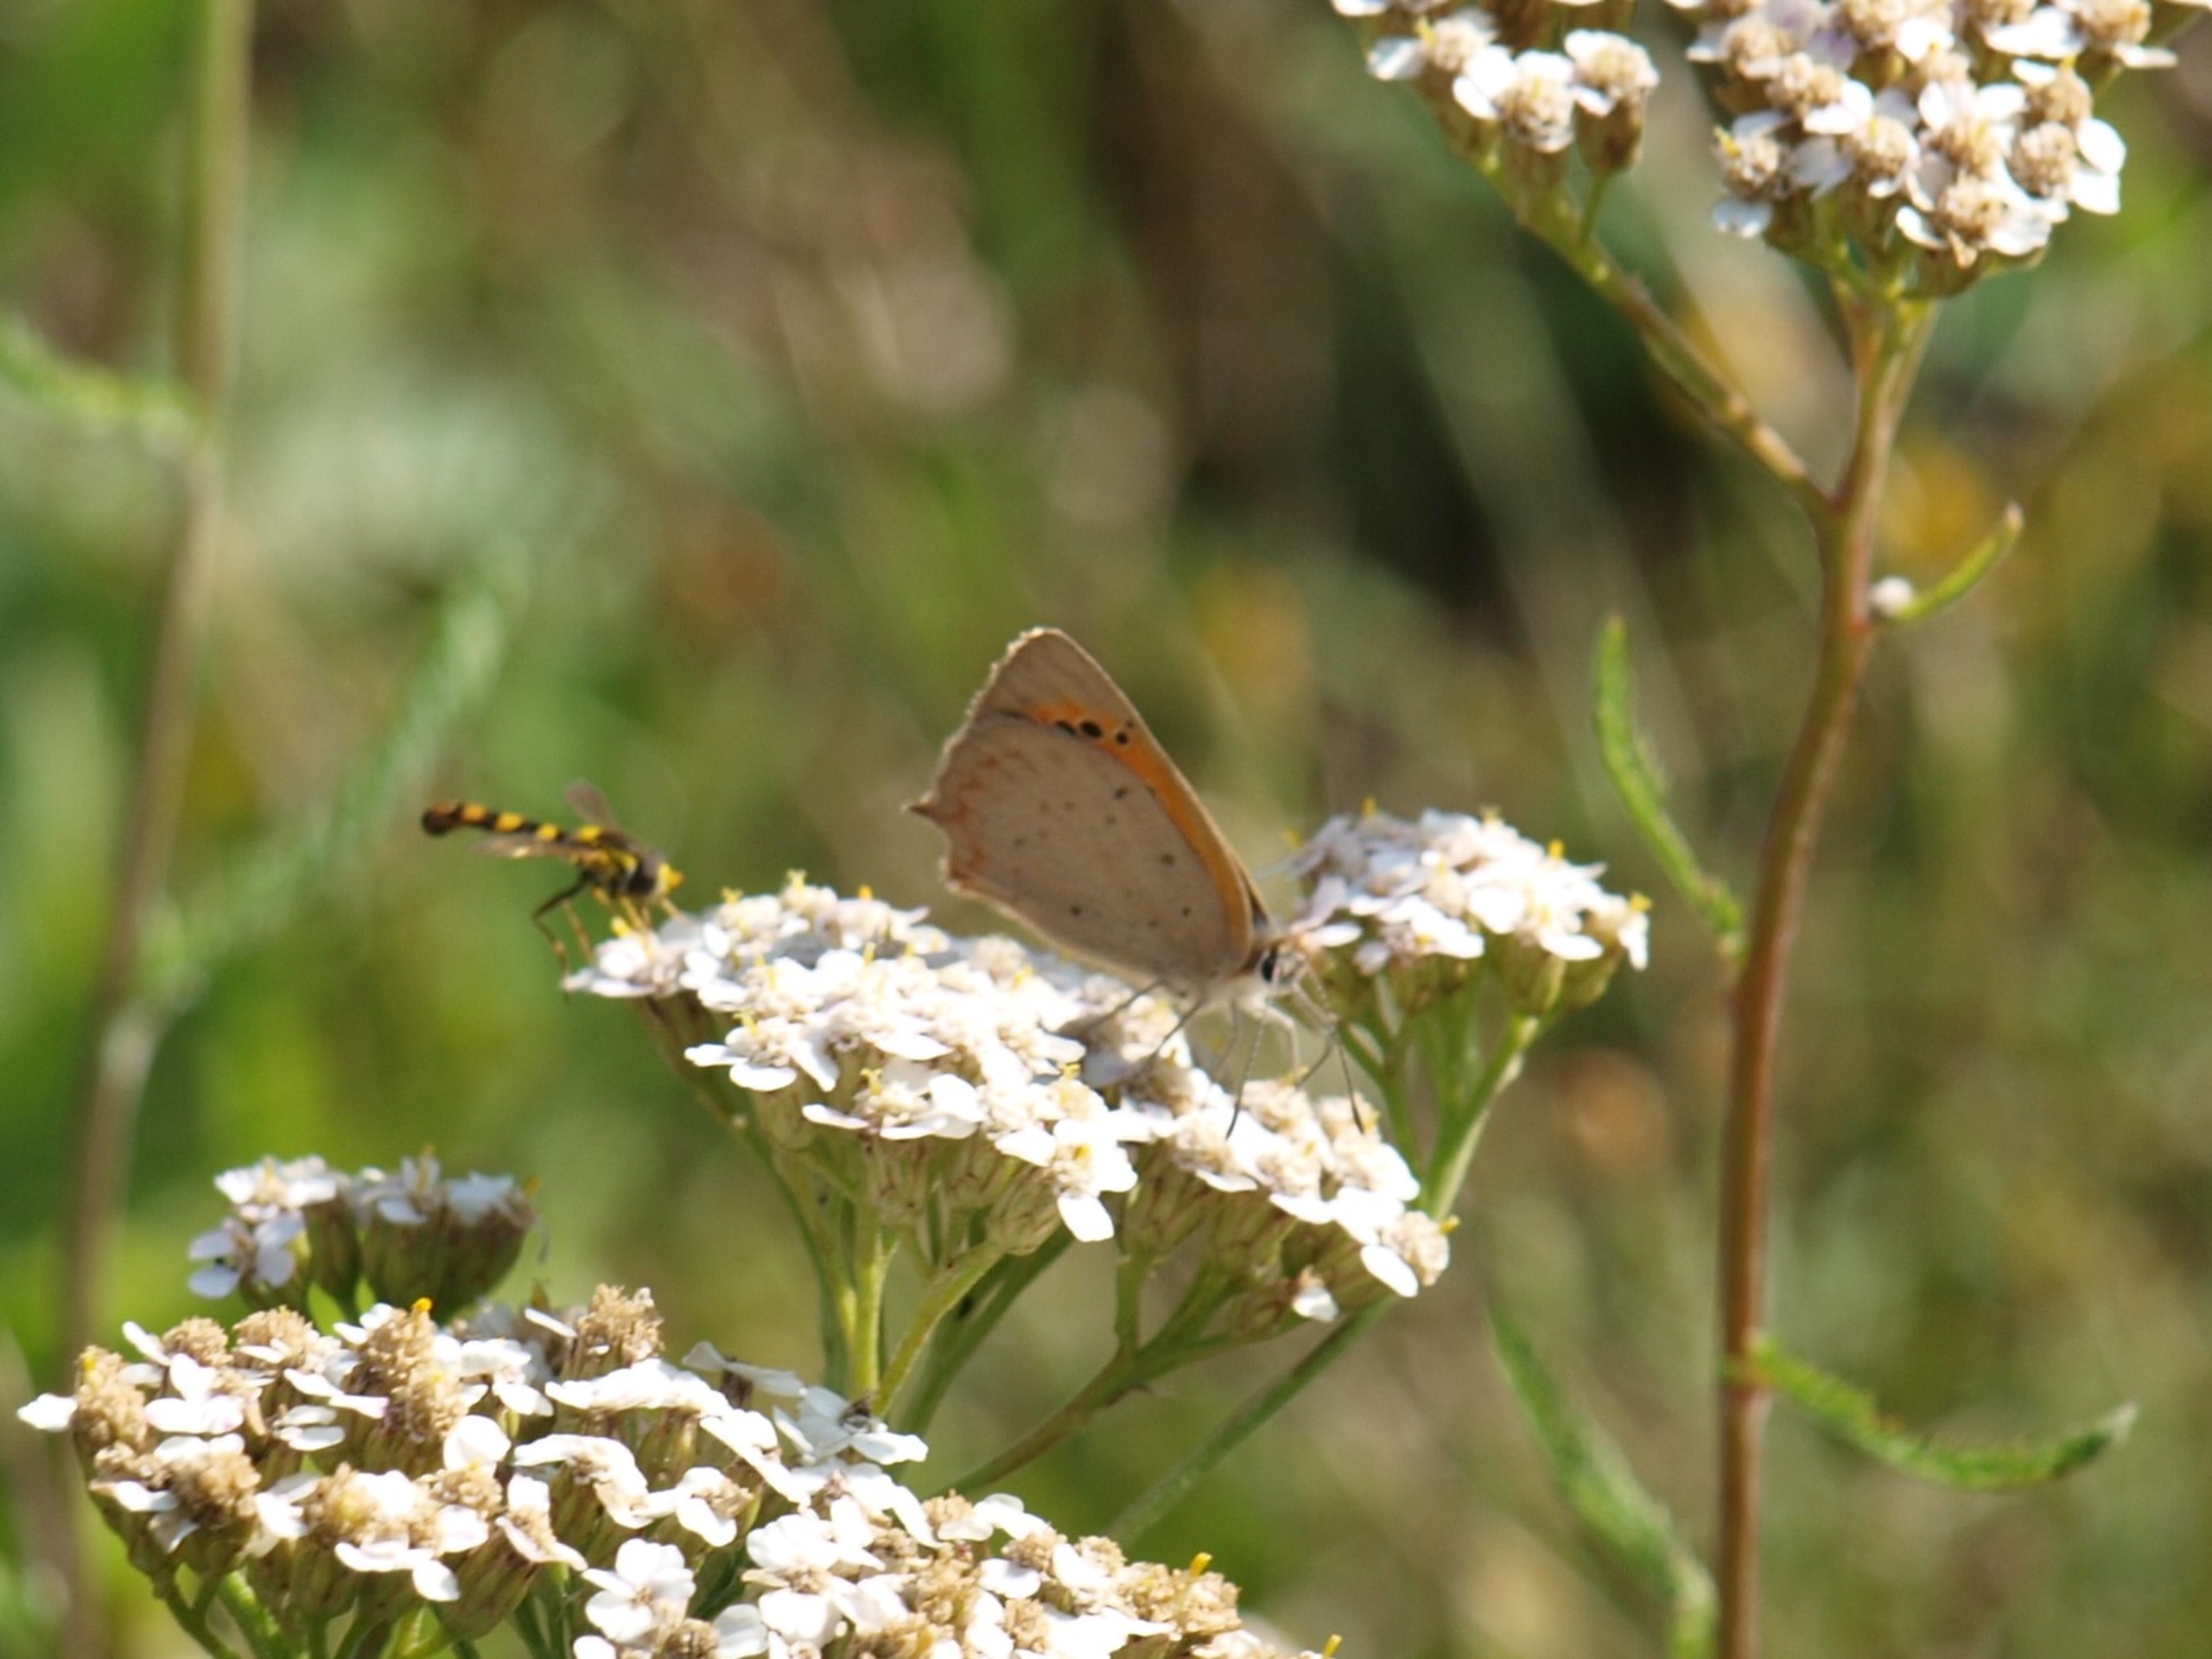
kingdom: Animalia
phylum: Arthropoda
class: Insecta
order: Lepidoptera
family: Lycaenidae
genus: Lycaena
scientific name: Lycaena phlaeas
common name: Lille ildfugl
